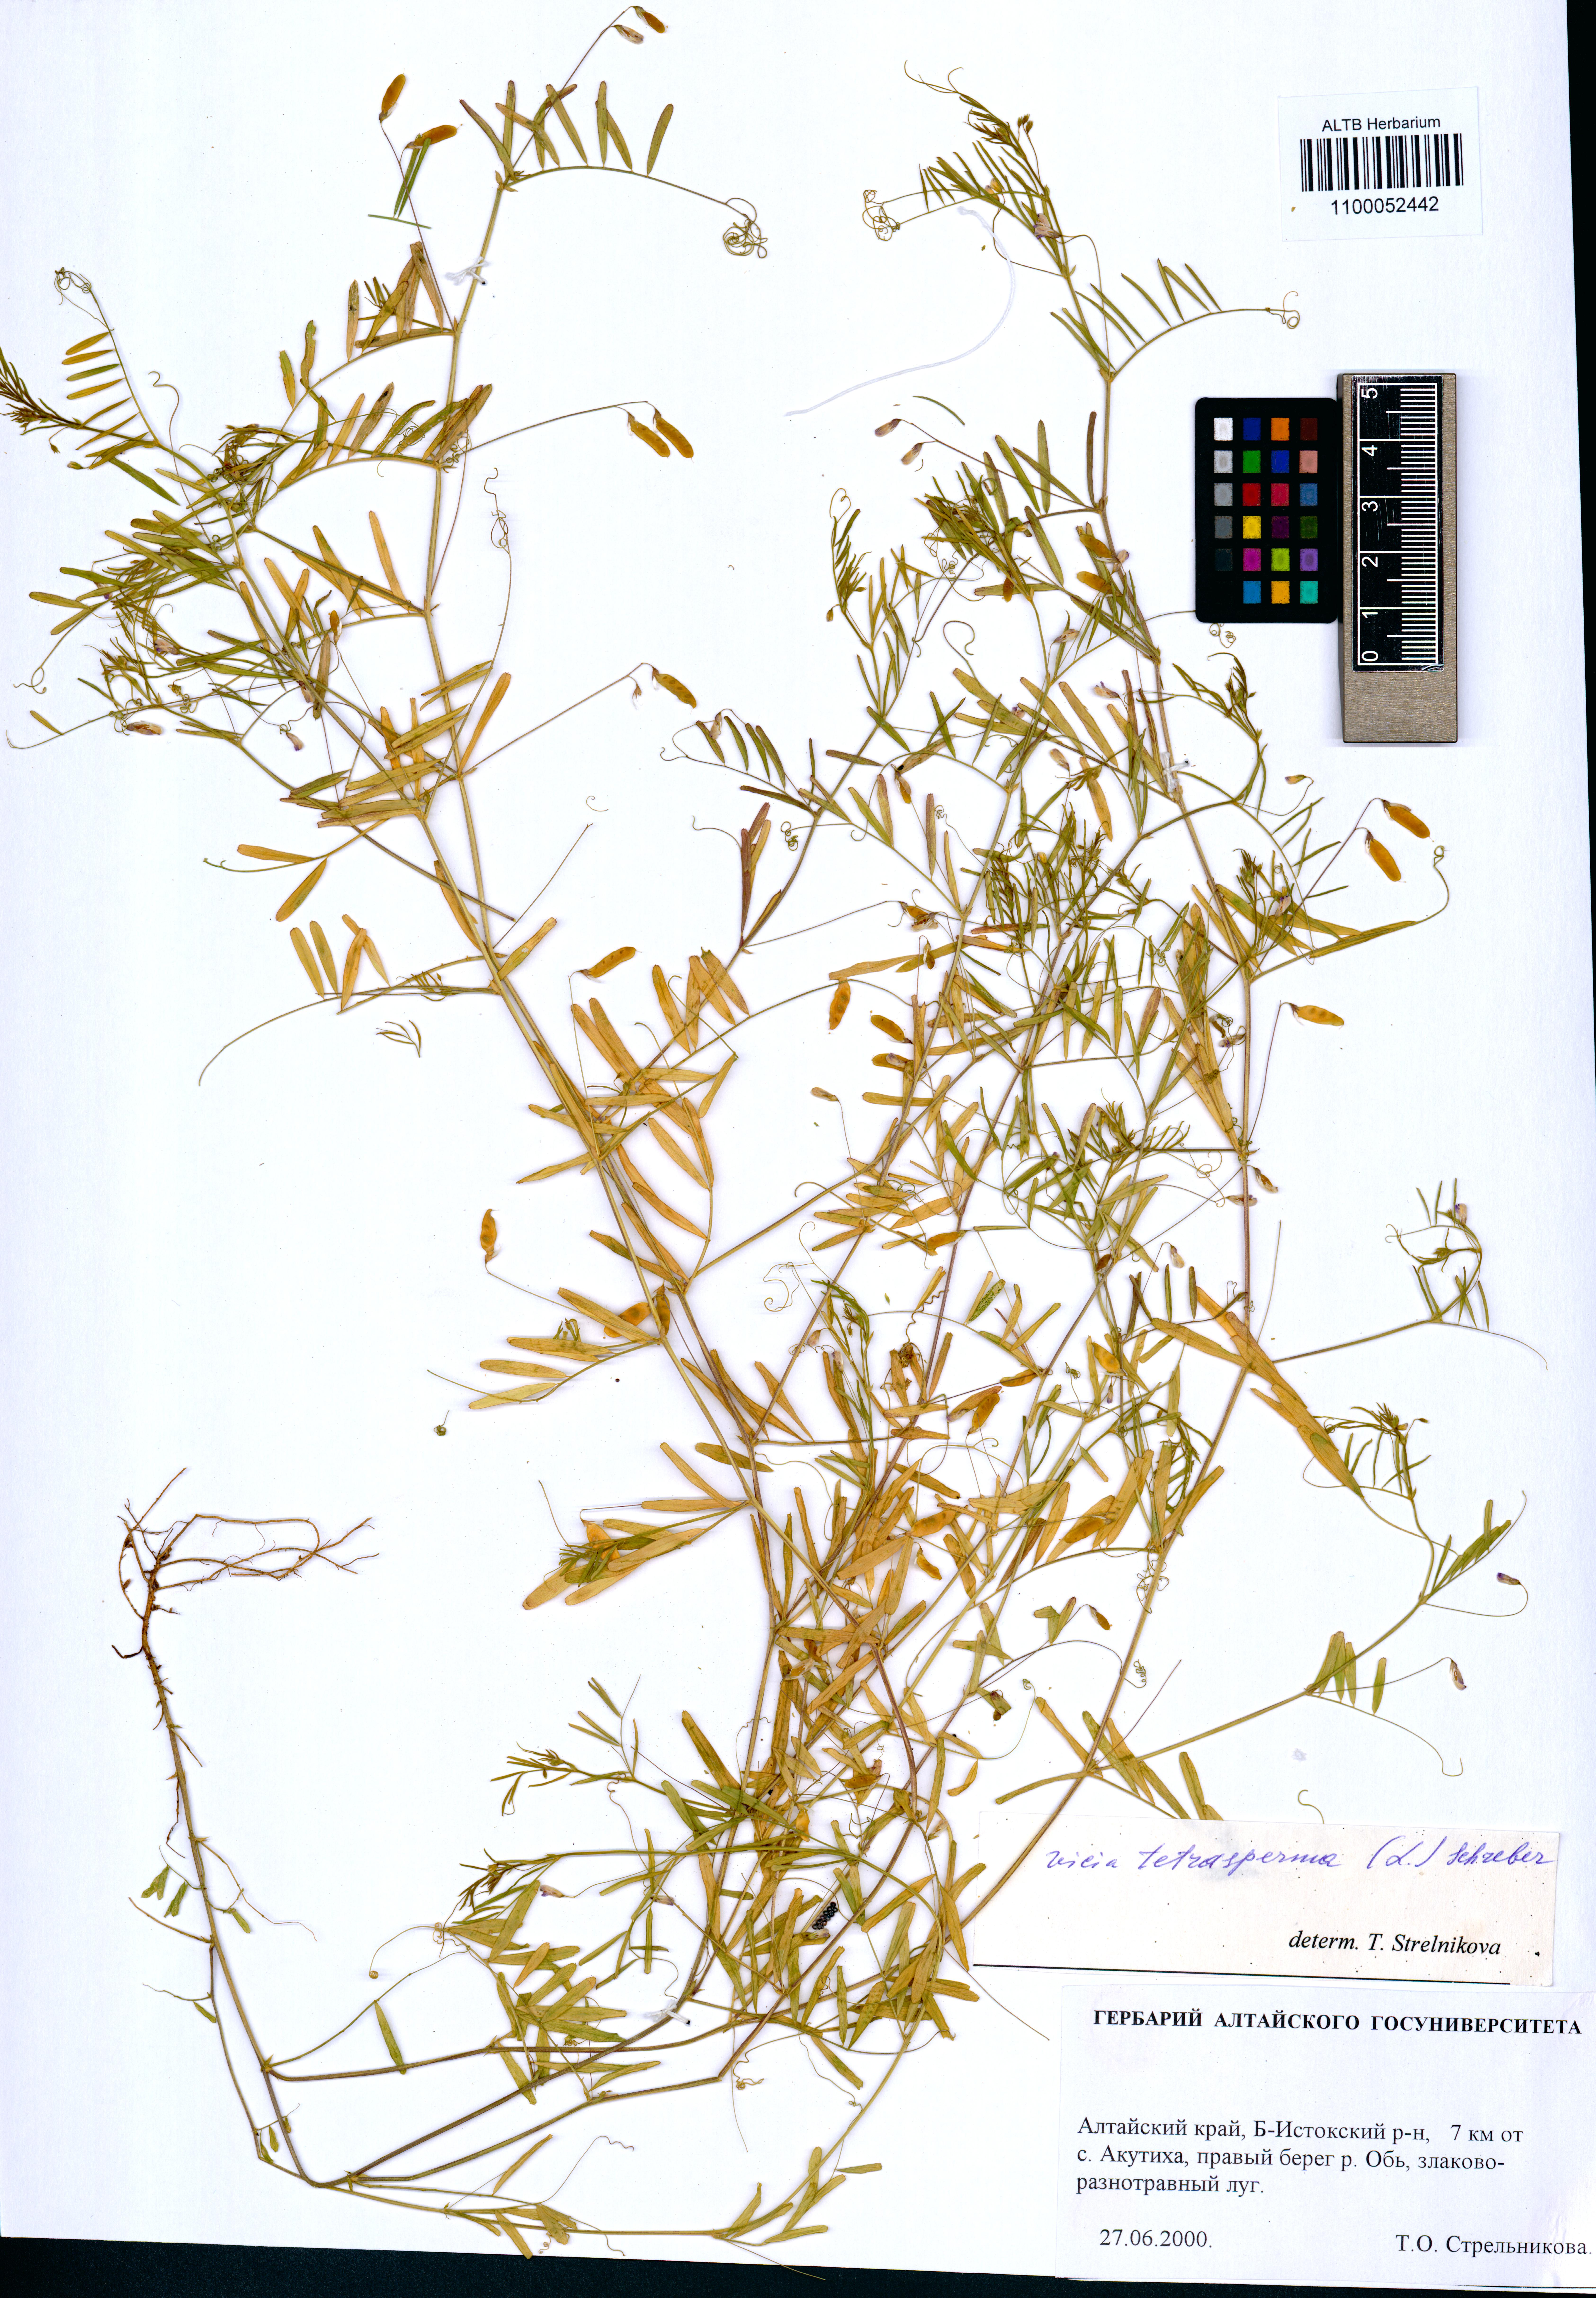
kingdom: Plantae
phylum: Tracheophyta
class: Magnoliopsida
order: Fabales
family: Fabaceae
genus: Vicia
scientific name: Vicia tetrasperma
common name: Smooth tare
